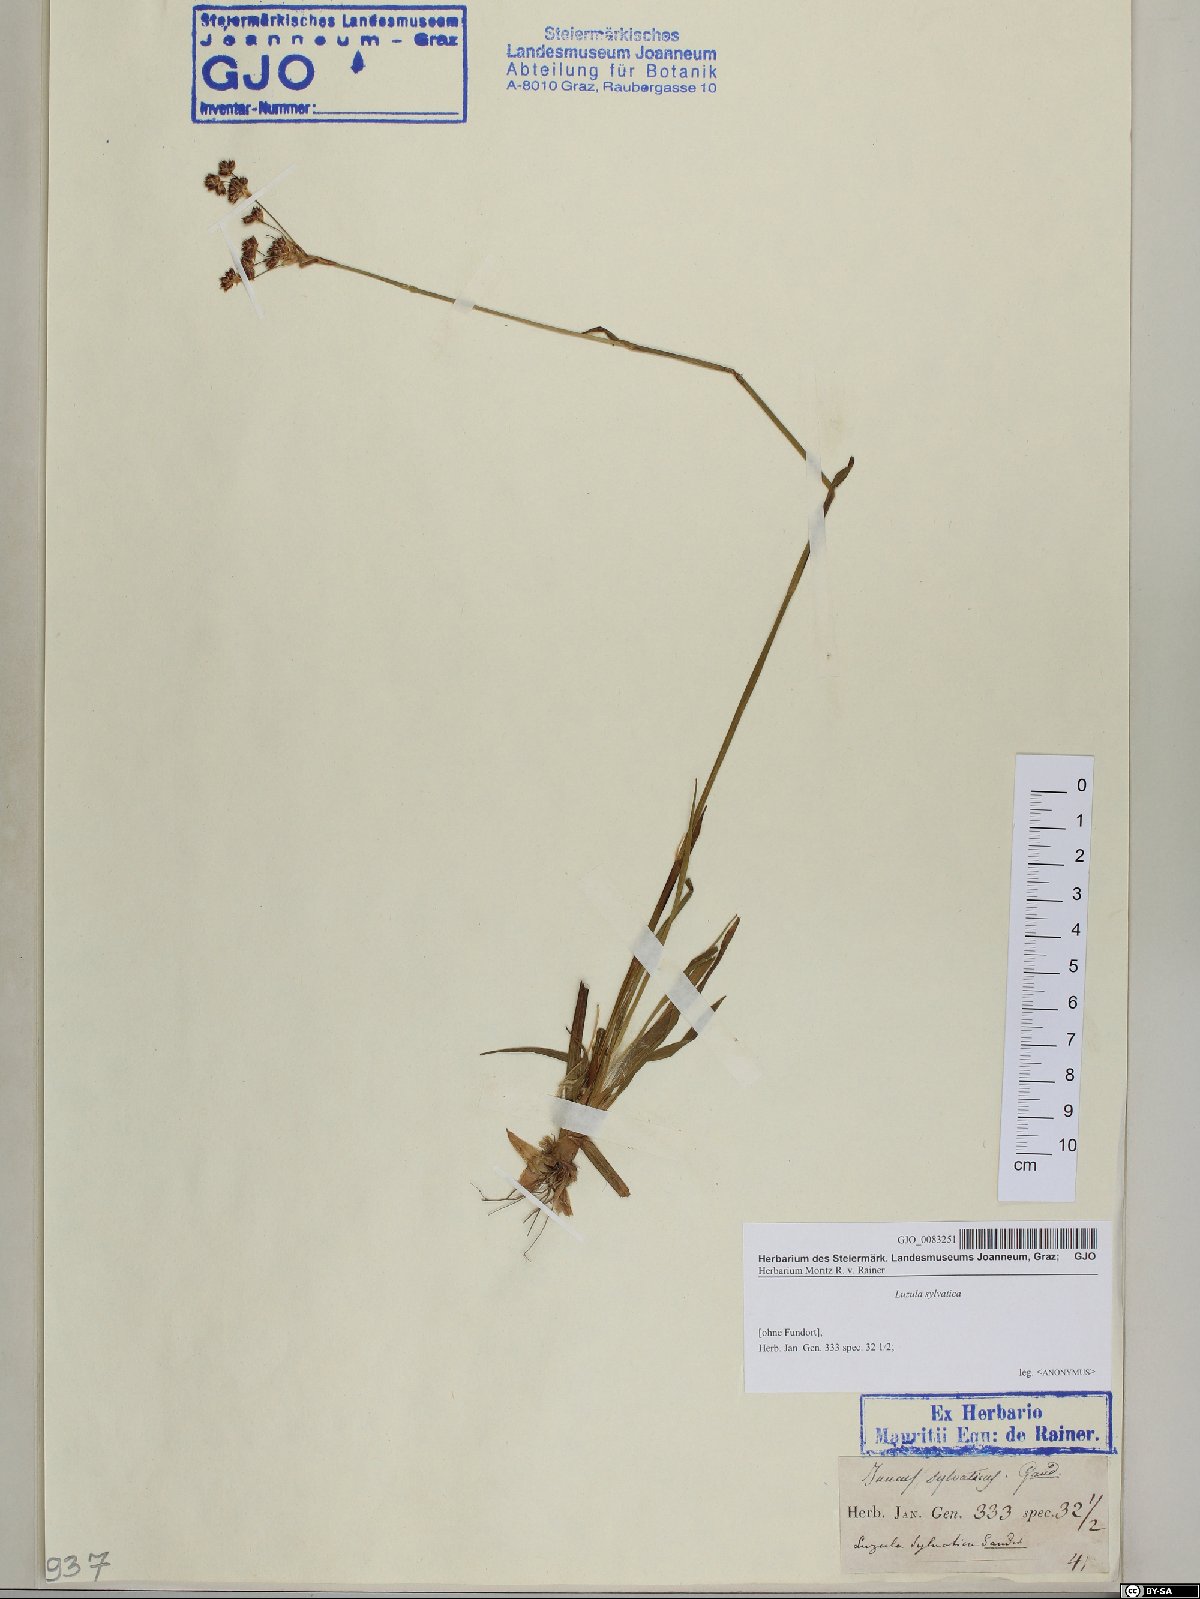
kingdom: Plantae
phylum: Tracheophyta
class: Liliopsida
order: Poales
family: Juncaceae
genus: Luzula
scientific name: Luzula sylvatica
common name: Great wood-rush
